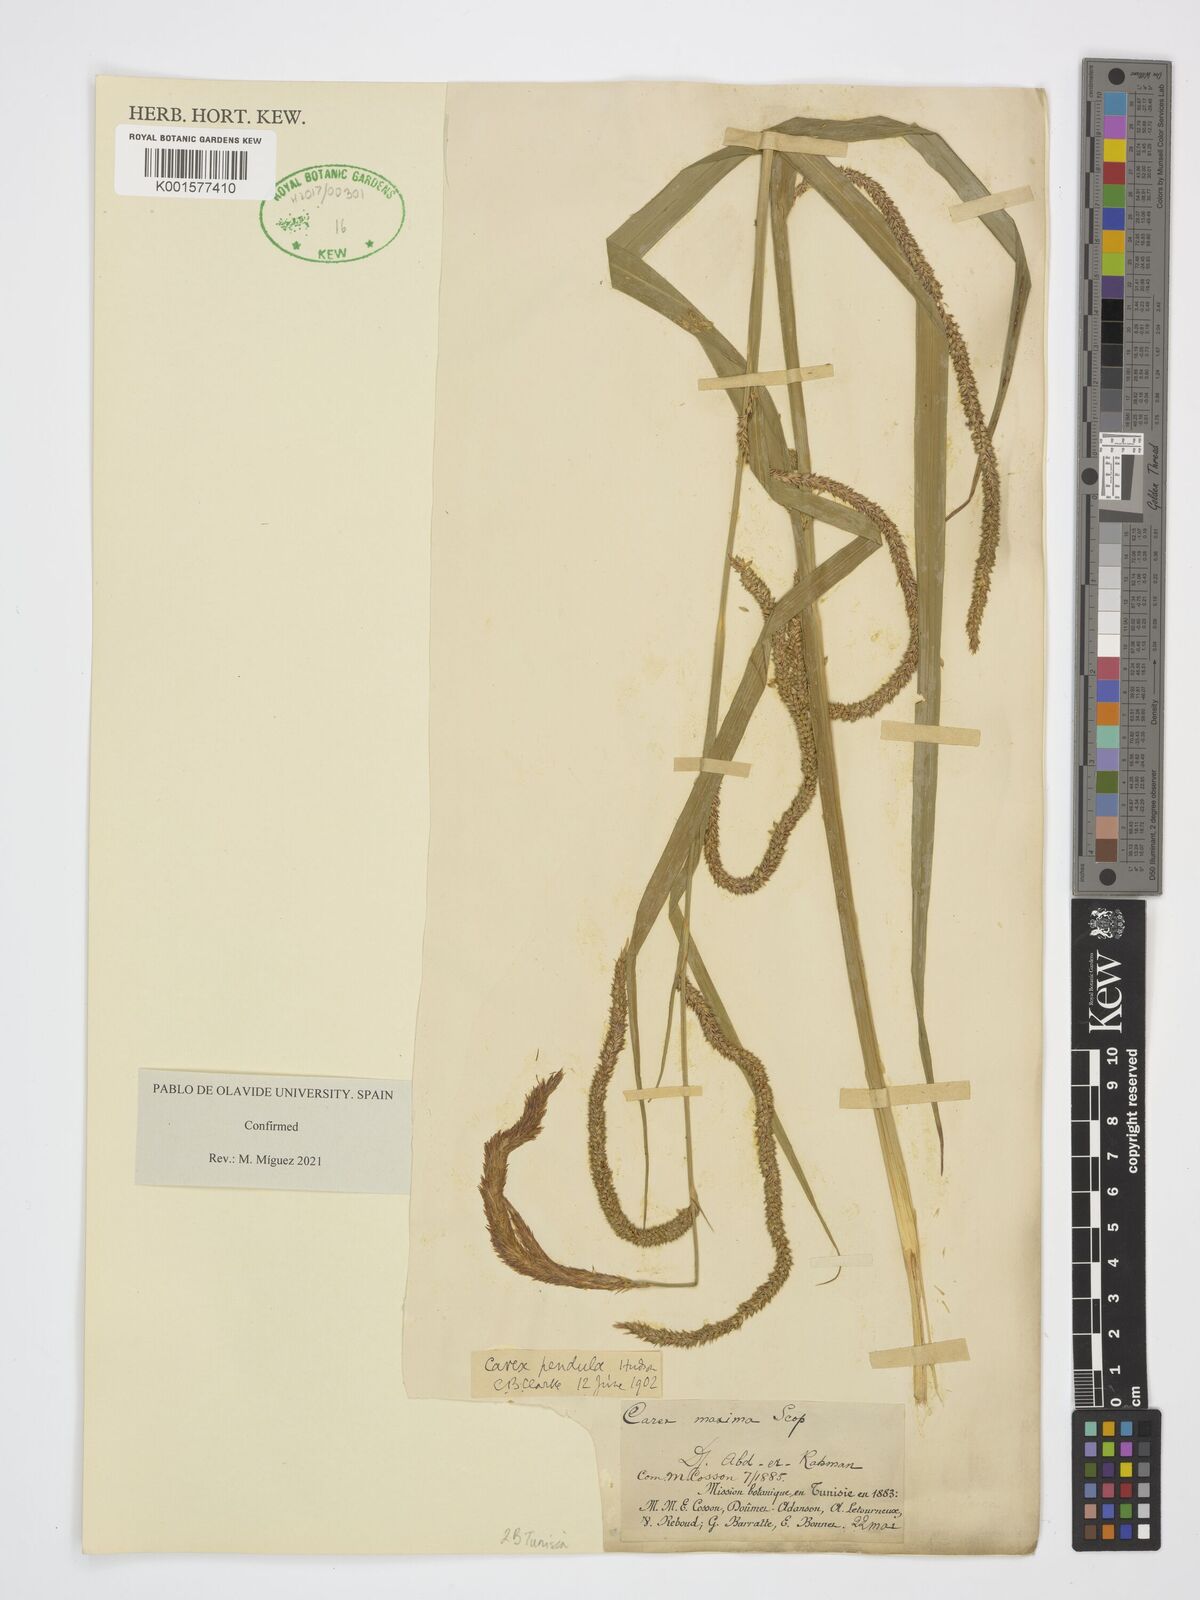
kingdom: Plantae
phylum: Tracheophyta
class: Liliopsida
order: Poales
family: Cyperaceae
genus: Carex
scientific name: Carex pendula
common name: Pendulous sedge
